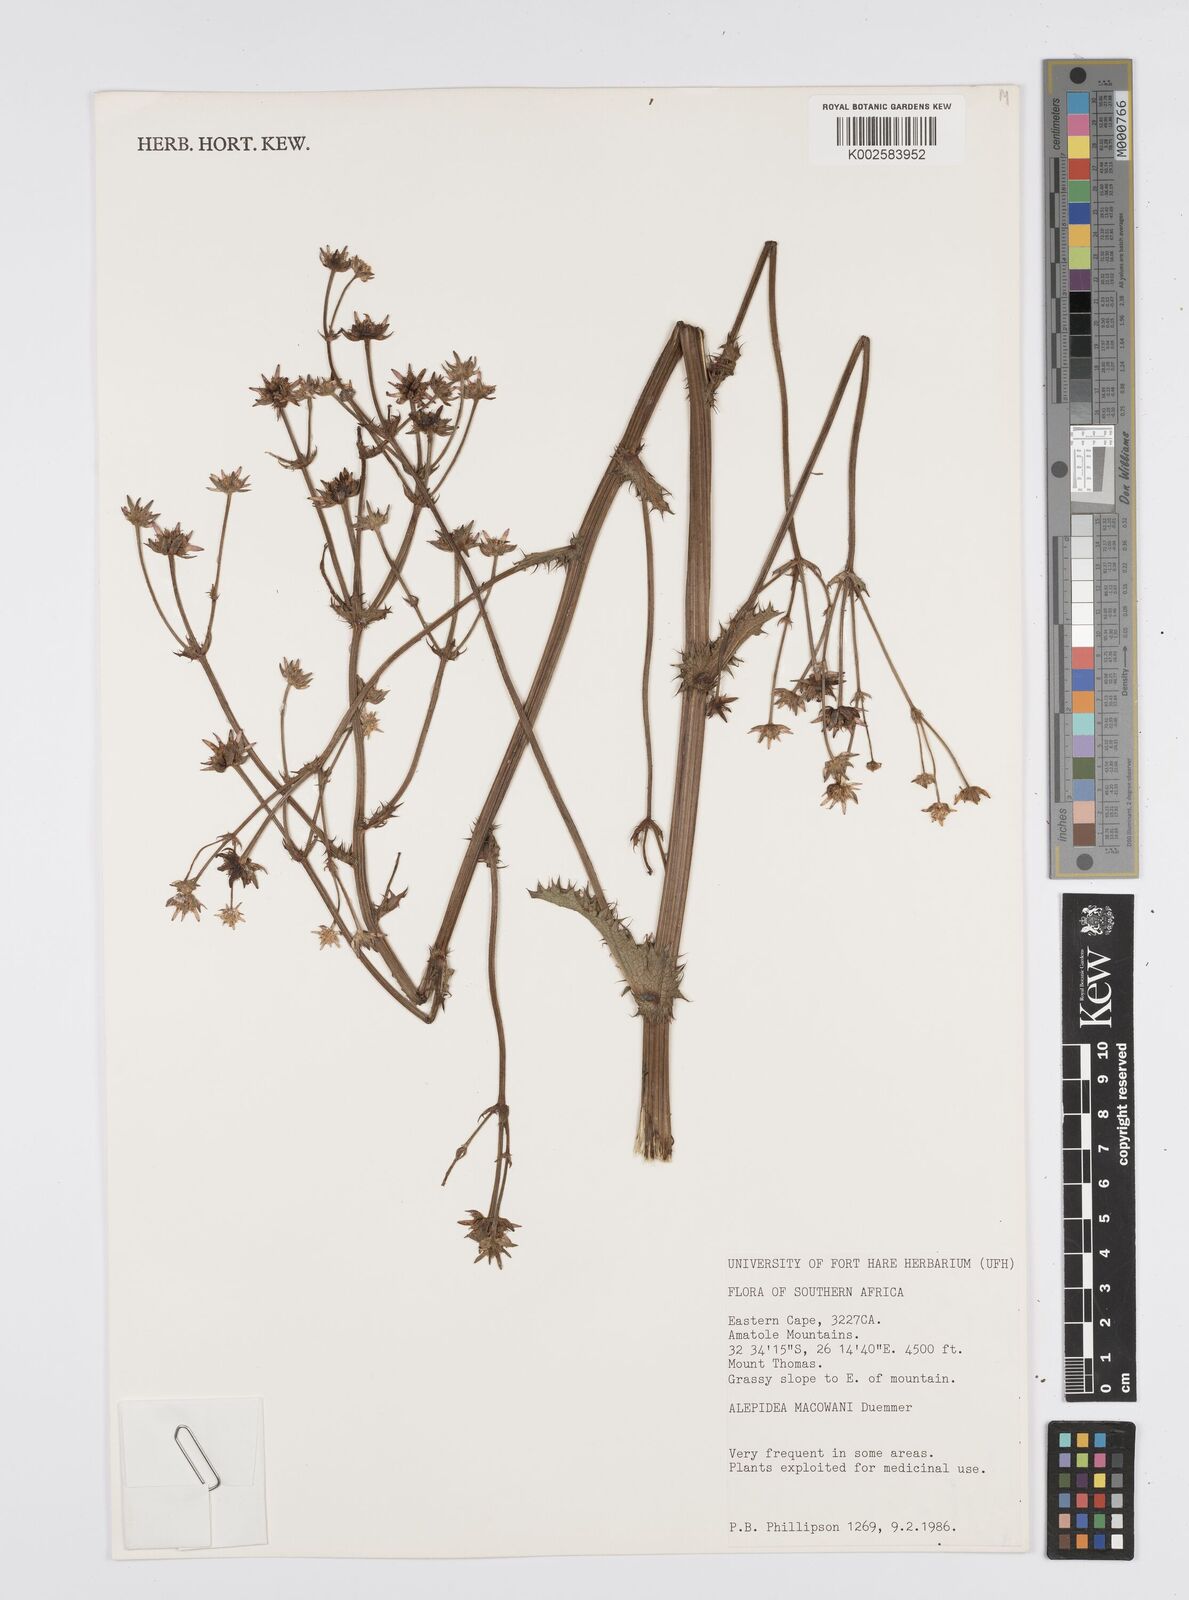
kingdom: Plantae
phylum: Tracheophyta
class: Magnoliopsida
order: Apiales
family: Apiaceae
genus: Alepidea
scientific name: Alepidea macowanii
